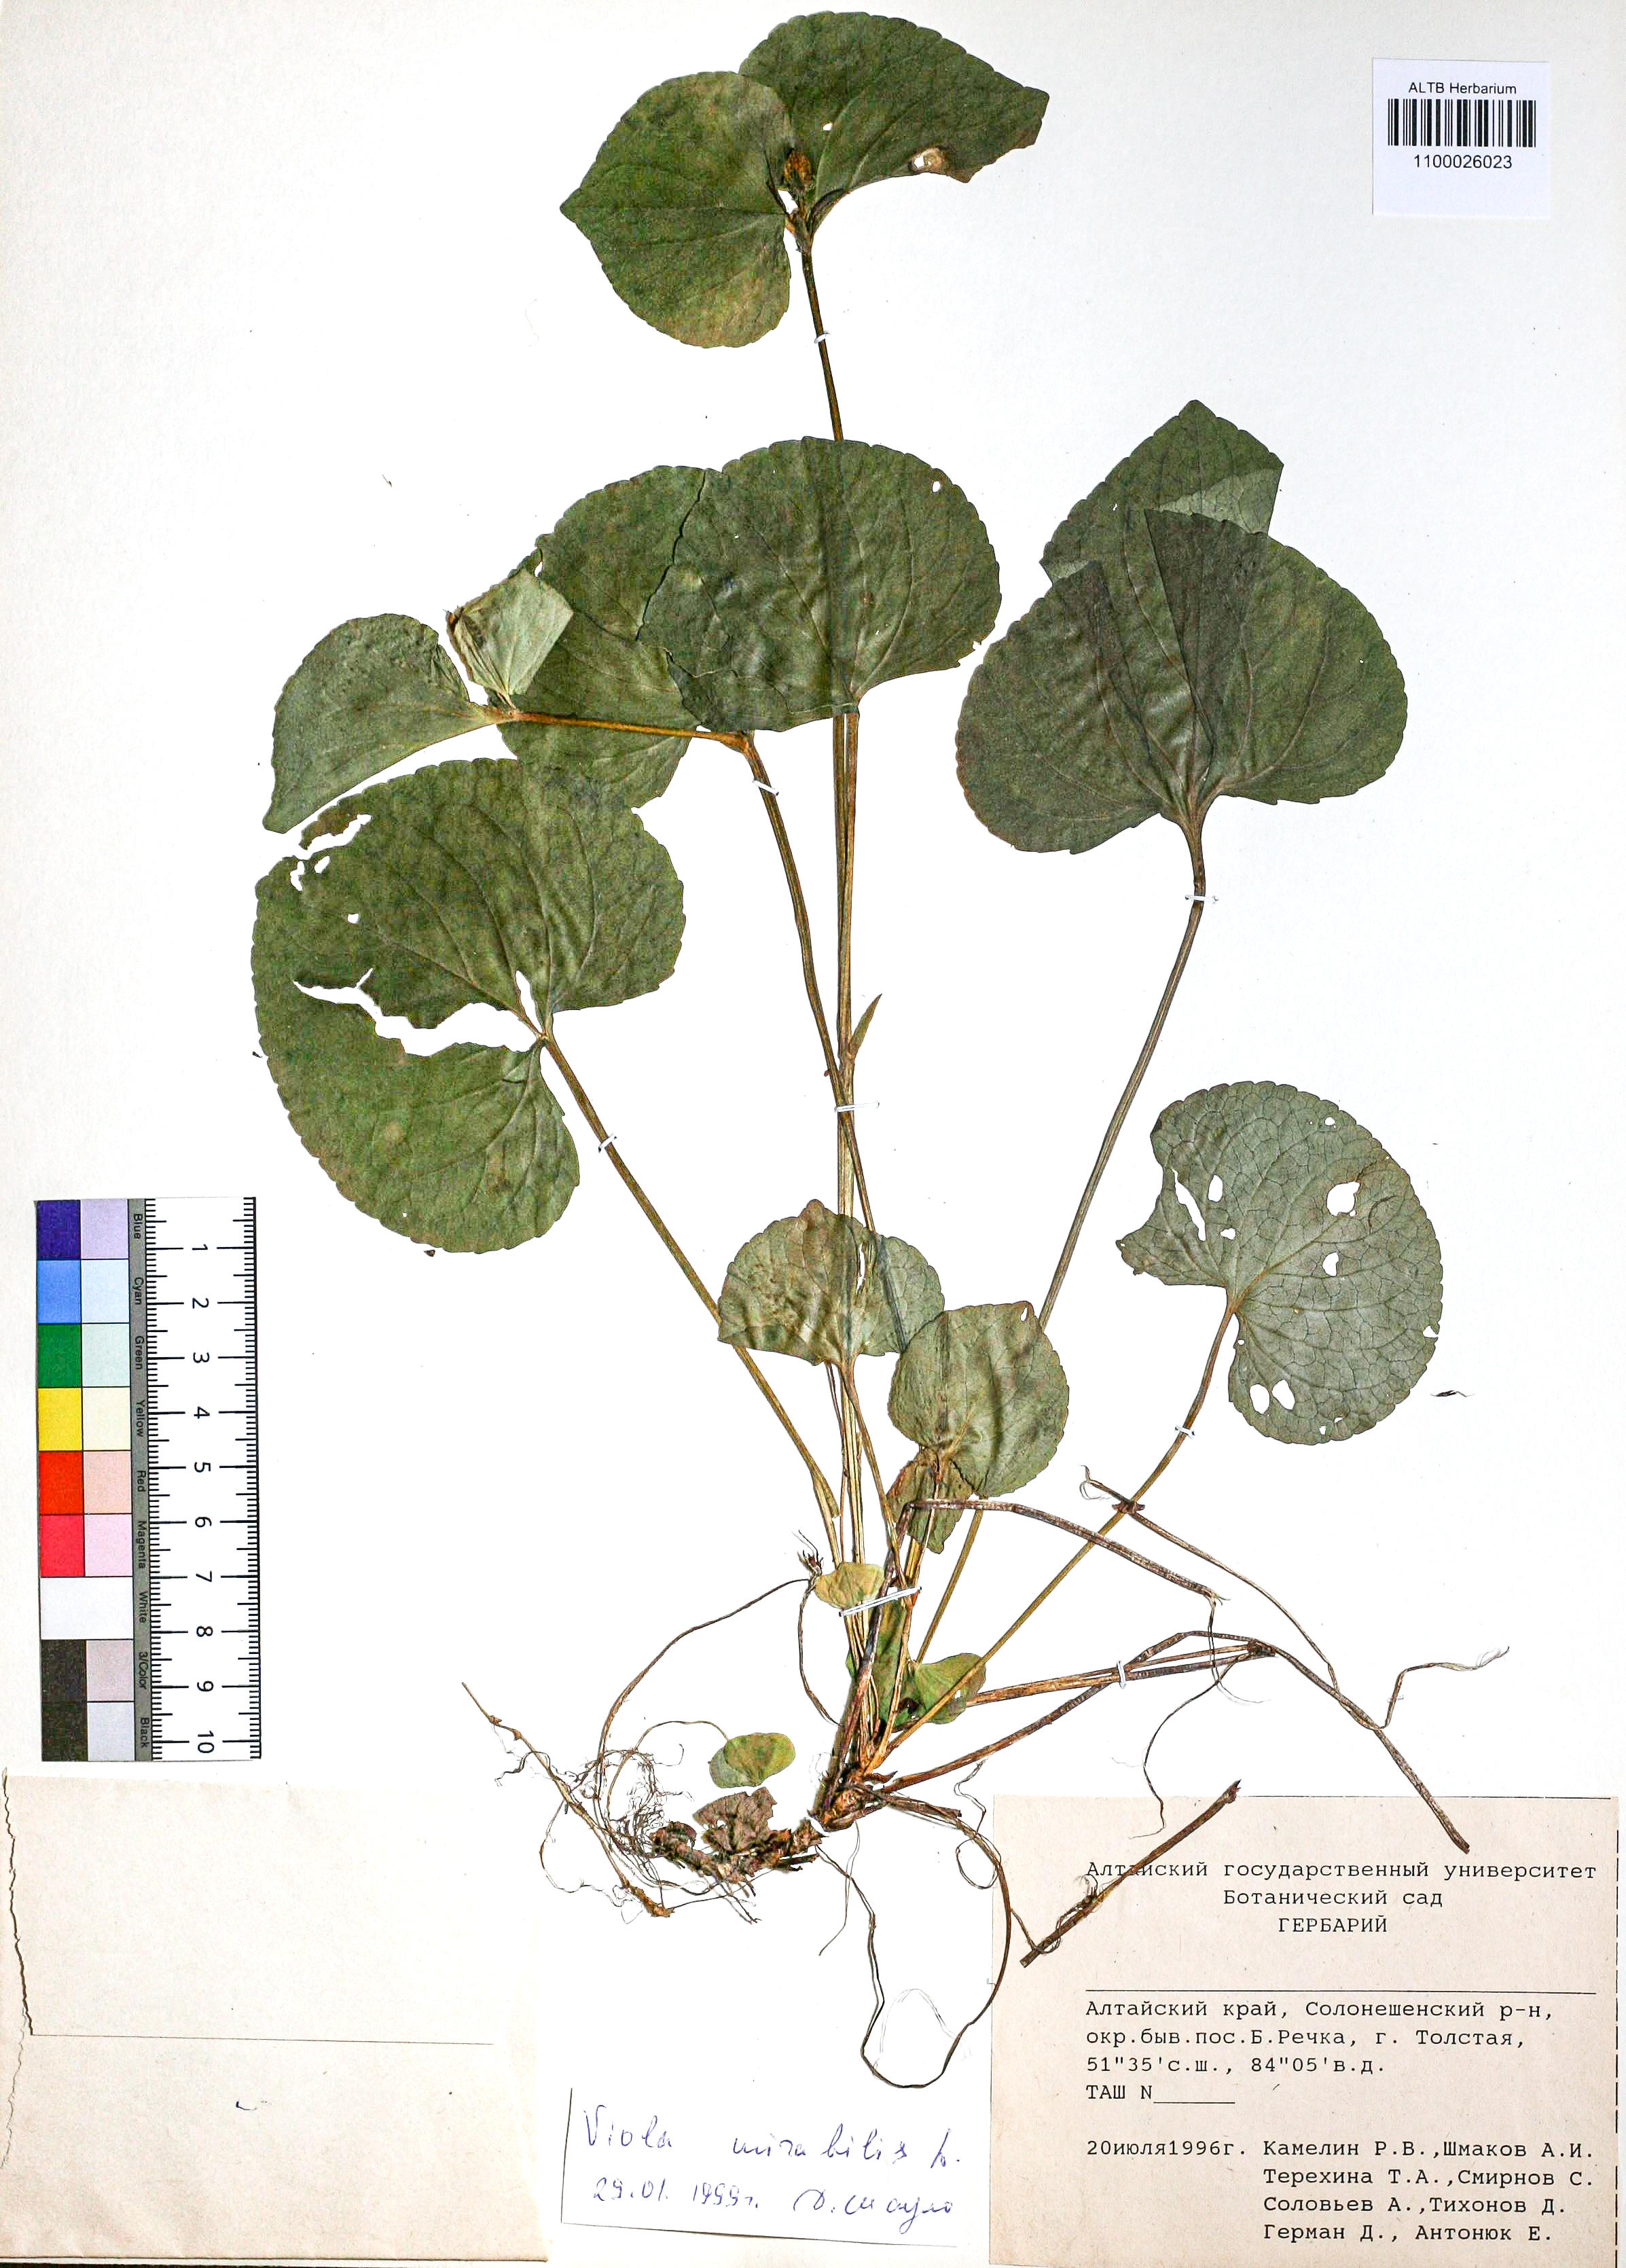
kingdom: Plantae
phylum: Tracheophyta
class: Magnoliopsida
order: Malpighiales
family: Violaceae
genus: Viola
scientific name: Viola mirabilis
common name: Wonder violet
